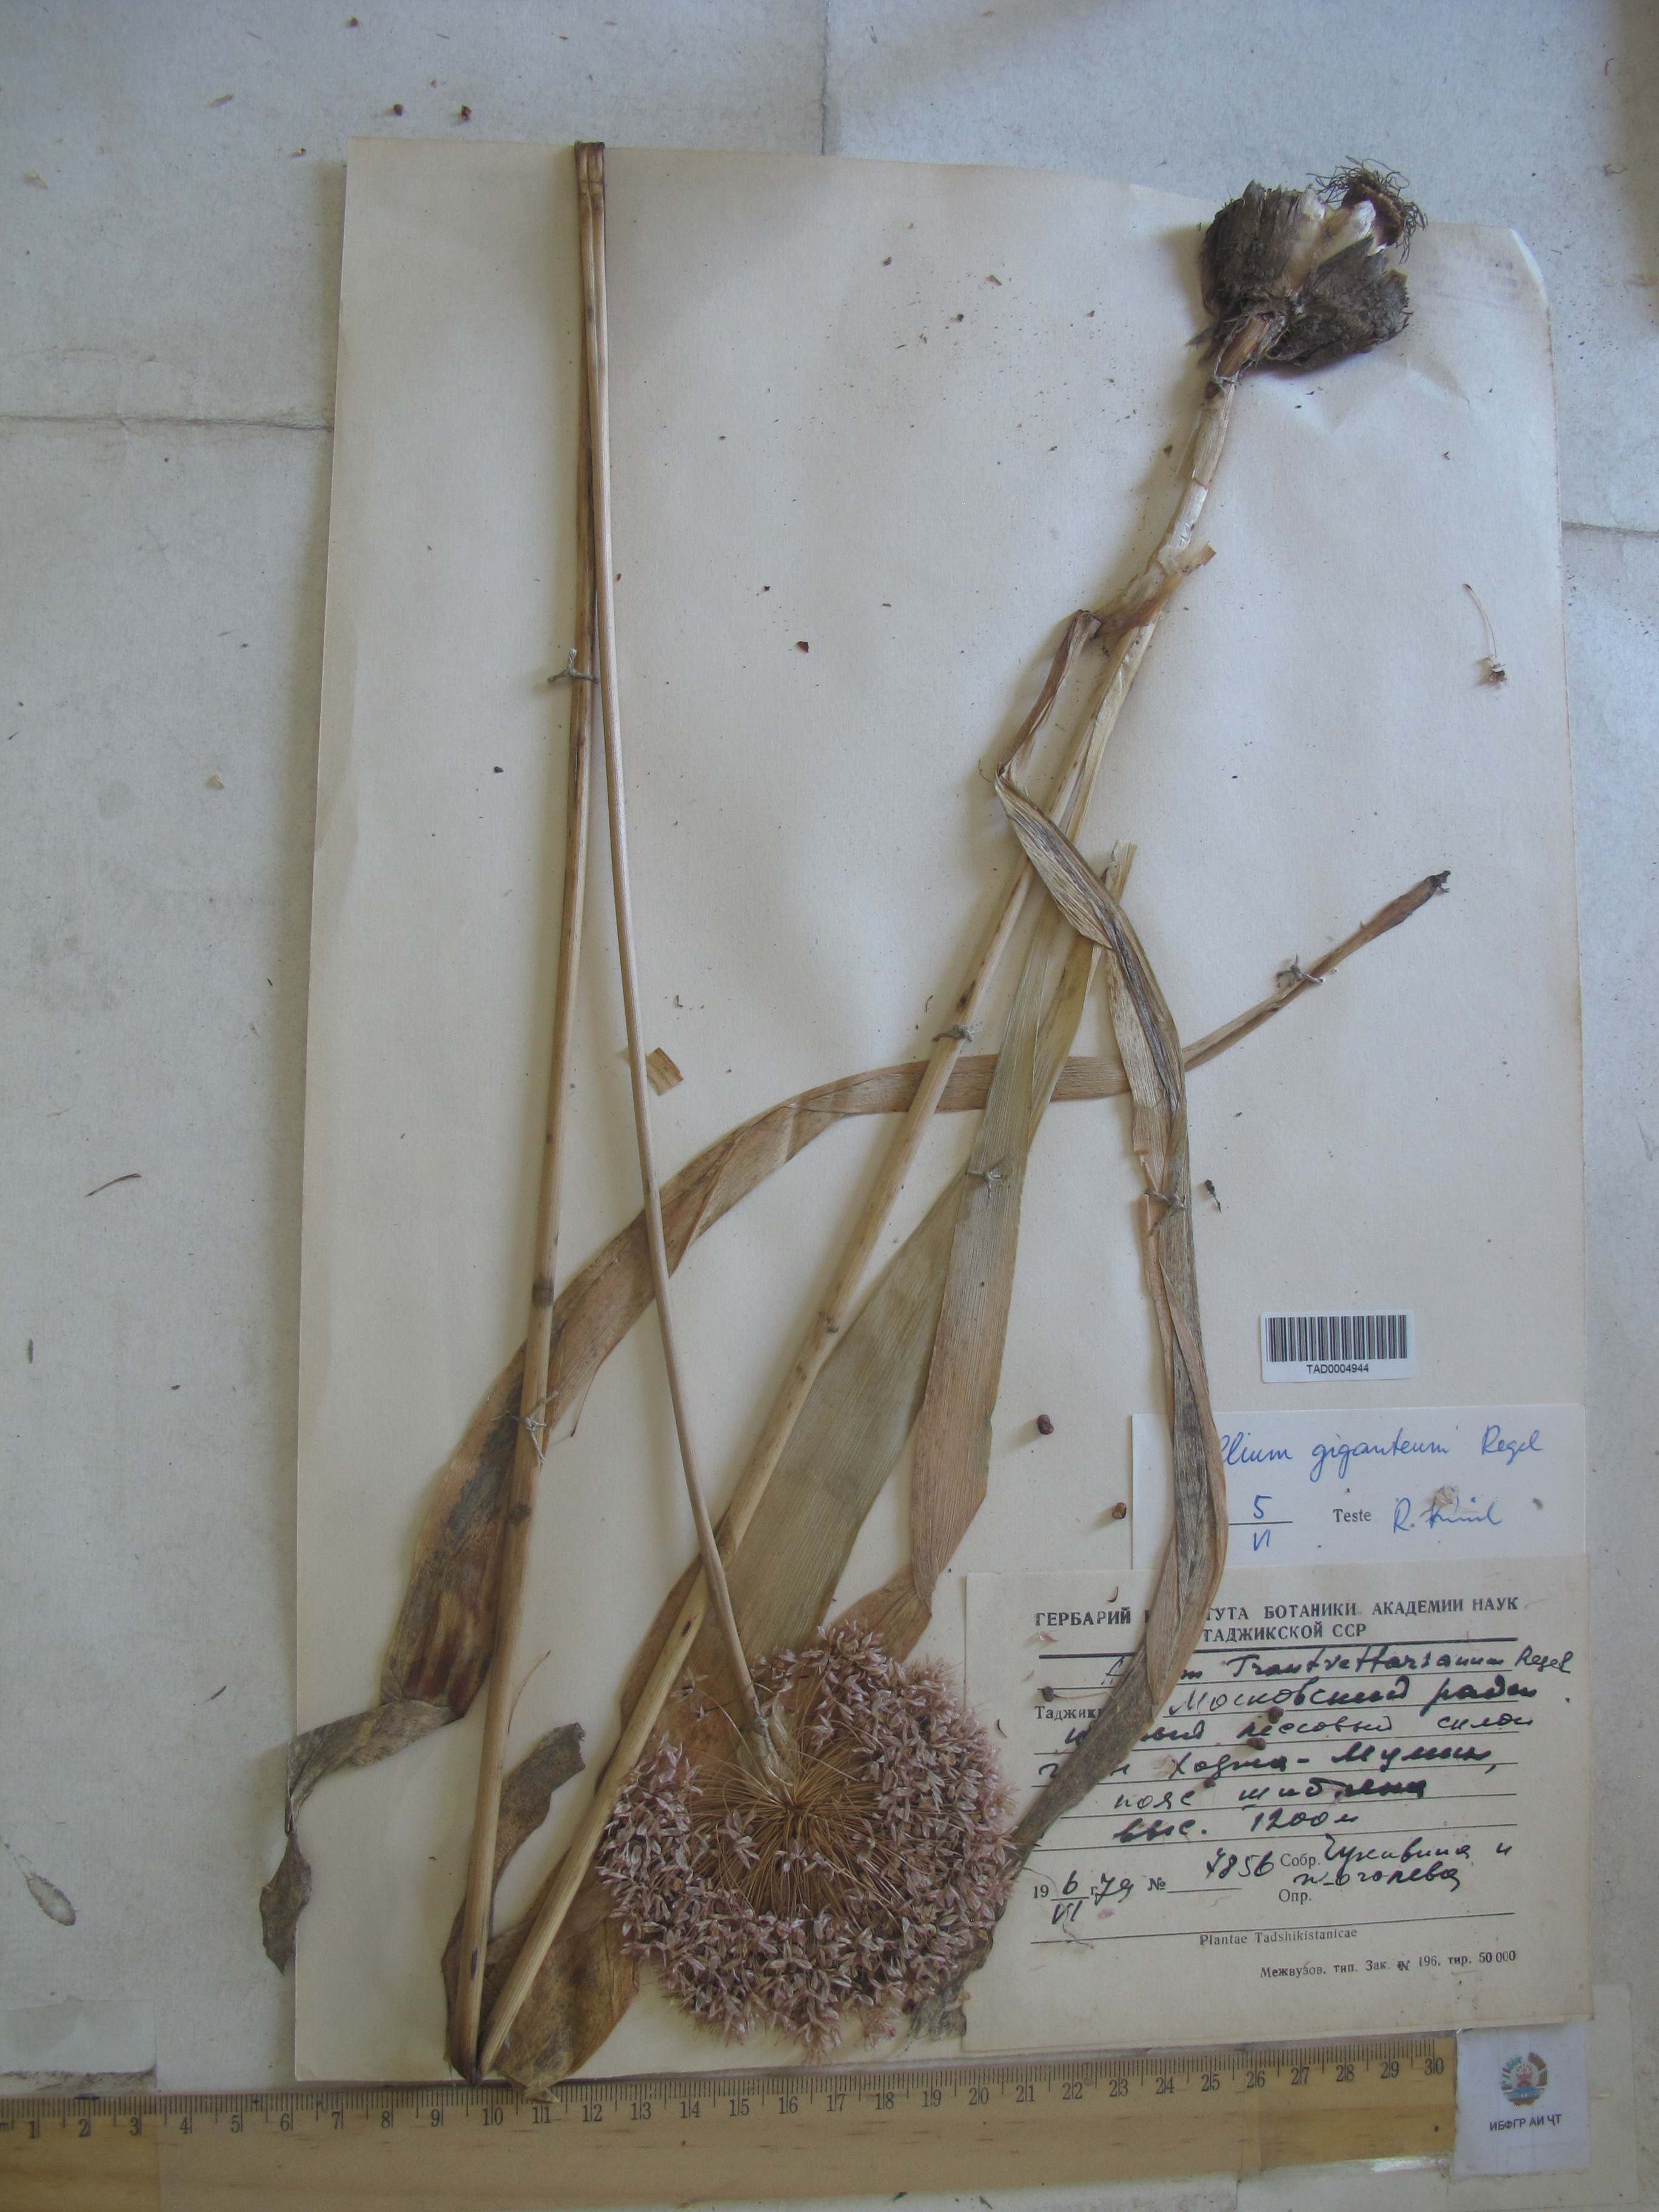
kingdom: Plantae
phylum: Tracheophyta
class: Liliopsida
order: Asparagales
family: Amaryllidaceae
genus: Allium
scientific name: Allium giganteum
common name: Giant onion
